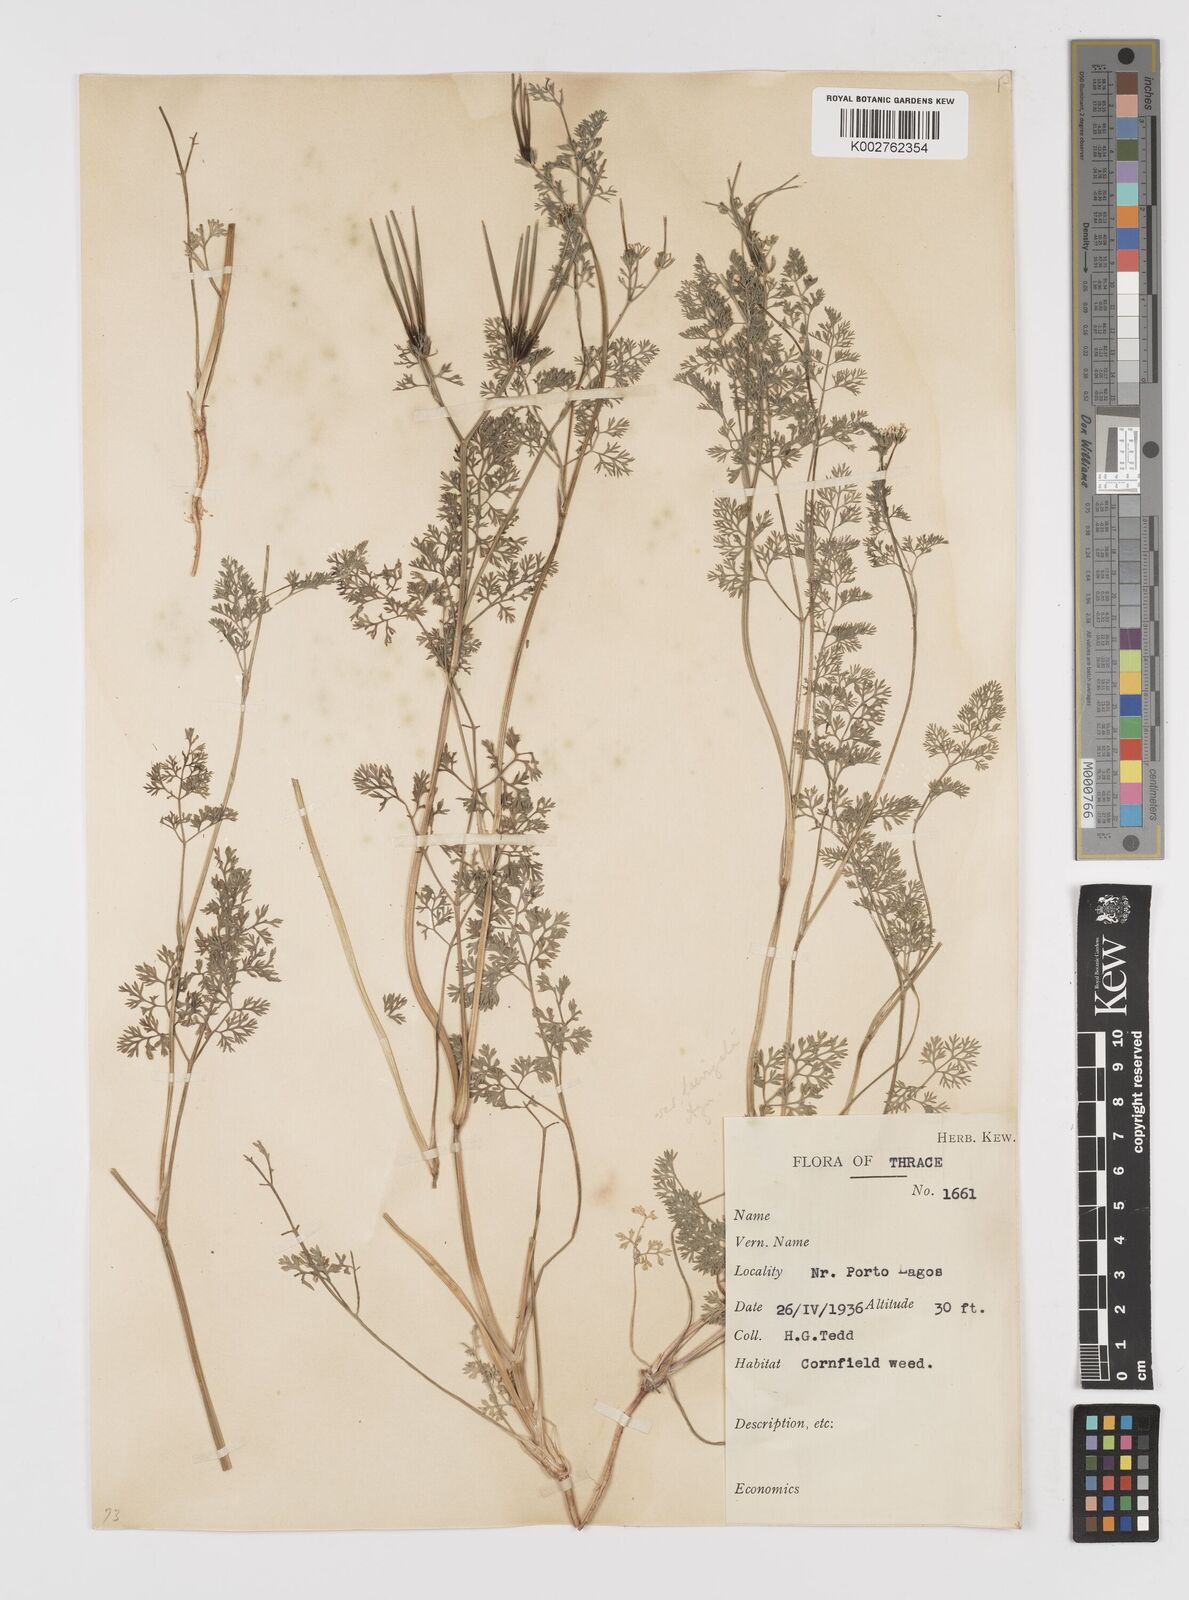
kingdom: Plantae
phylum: Tracheophyta
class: Magnoliopsida
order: Apiales
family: Apiaceae
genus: Scandix
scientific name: Scandix pecten-veneris
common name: Shepherd's-needle
